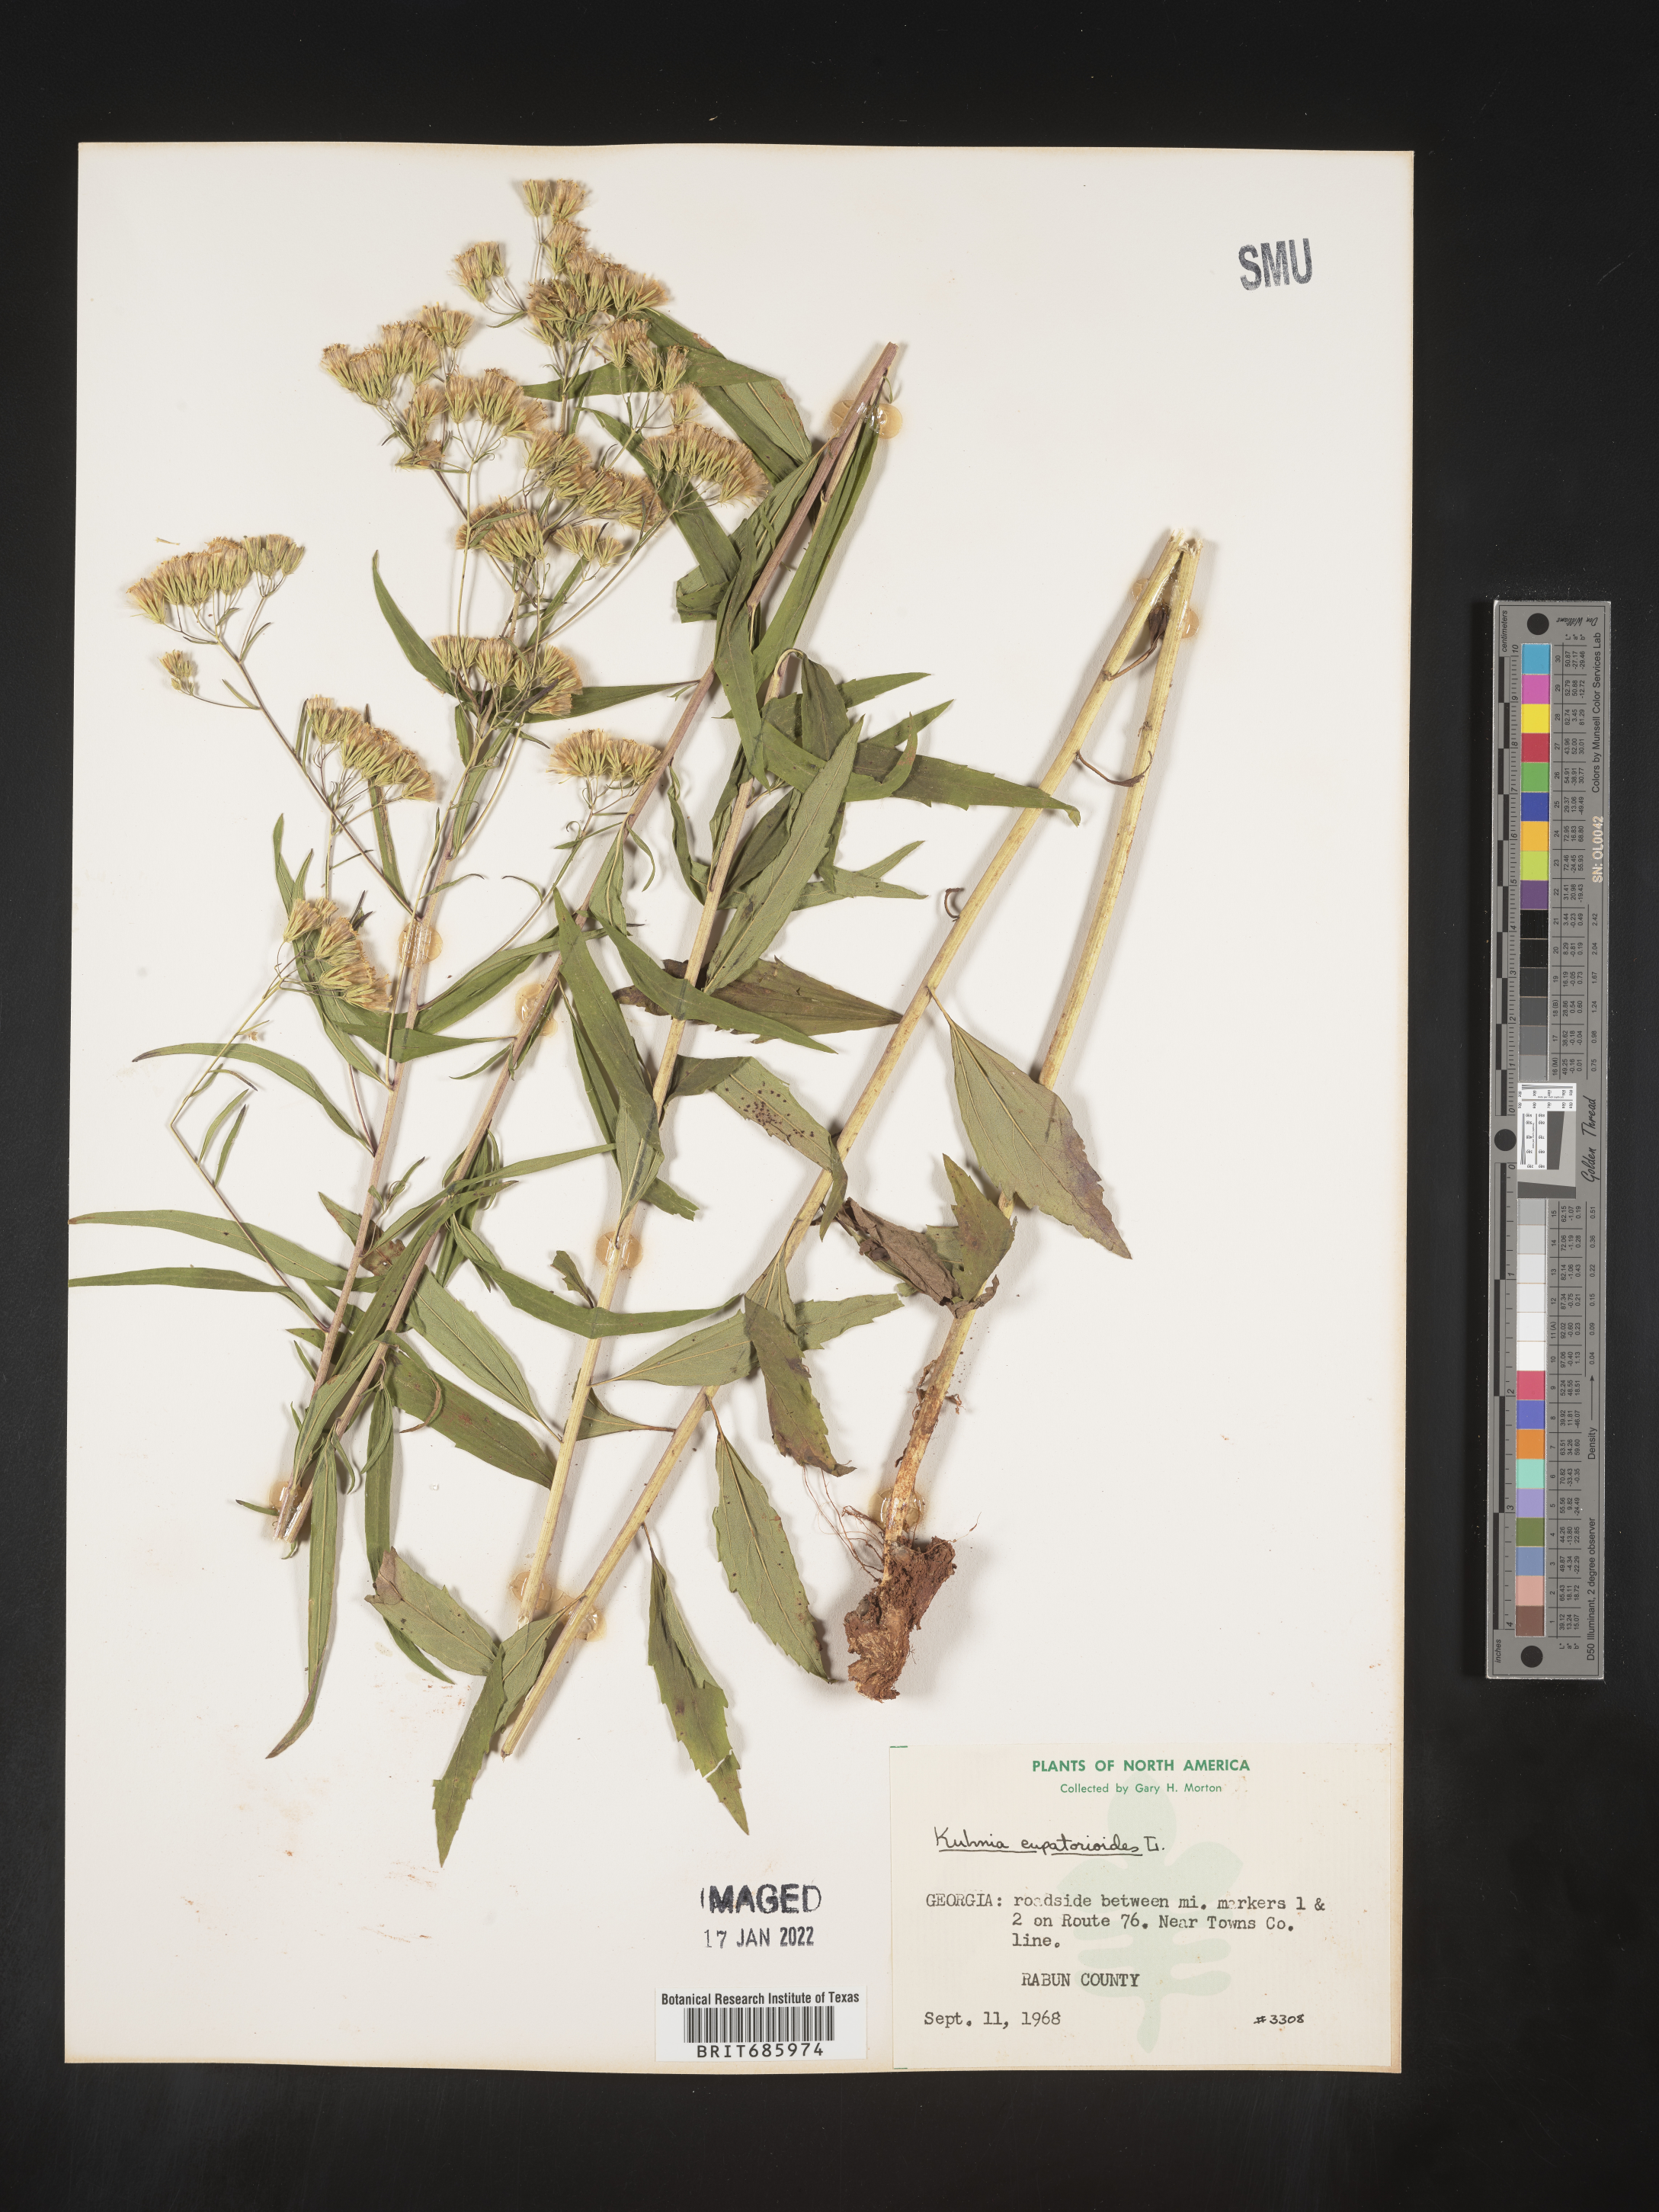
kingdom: Plantae
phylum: Tracheophyta
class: Magnoliopsida
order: Asterales
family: Asteraceae
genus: Brickellia
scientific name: Brickellia eupatorioides
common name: False boneset
